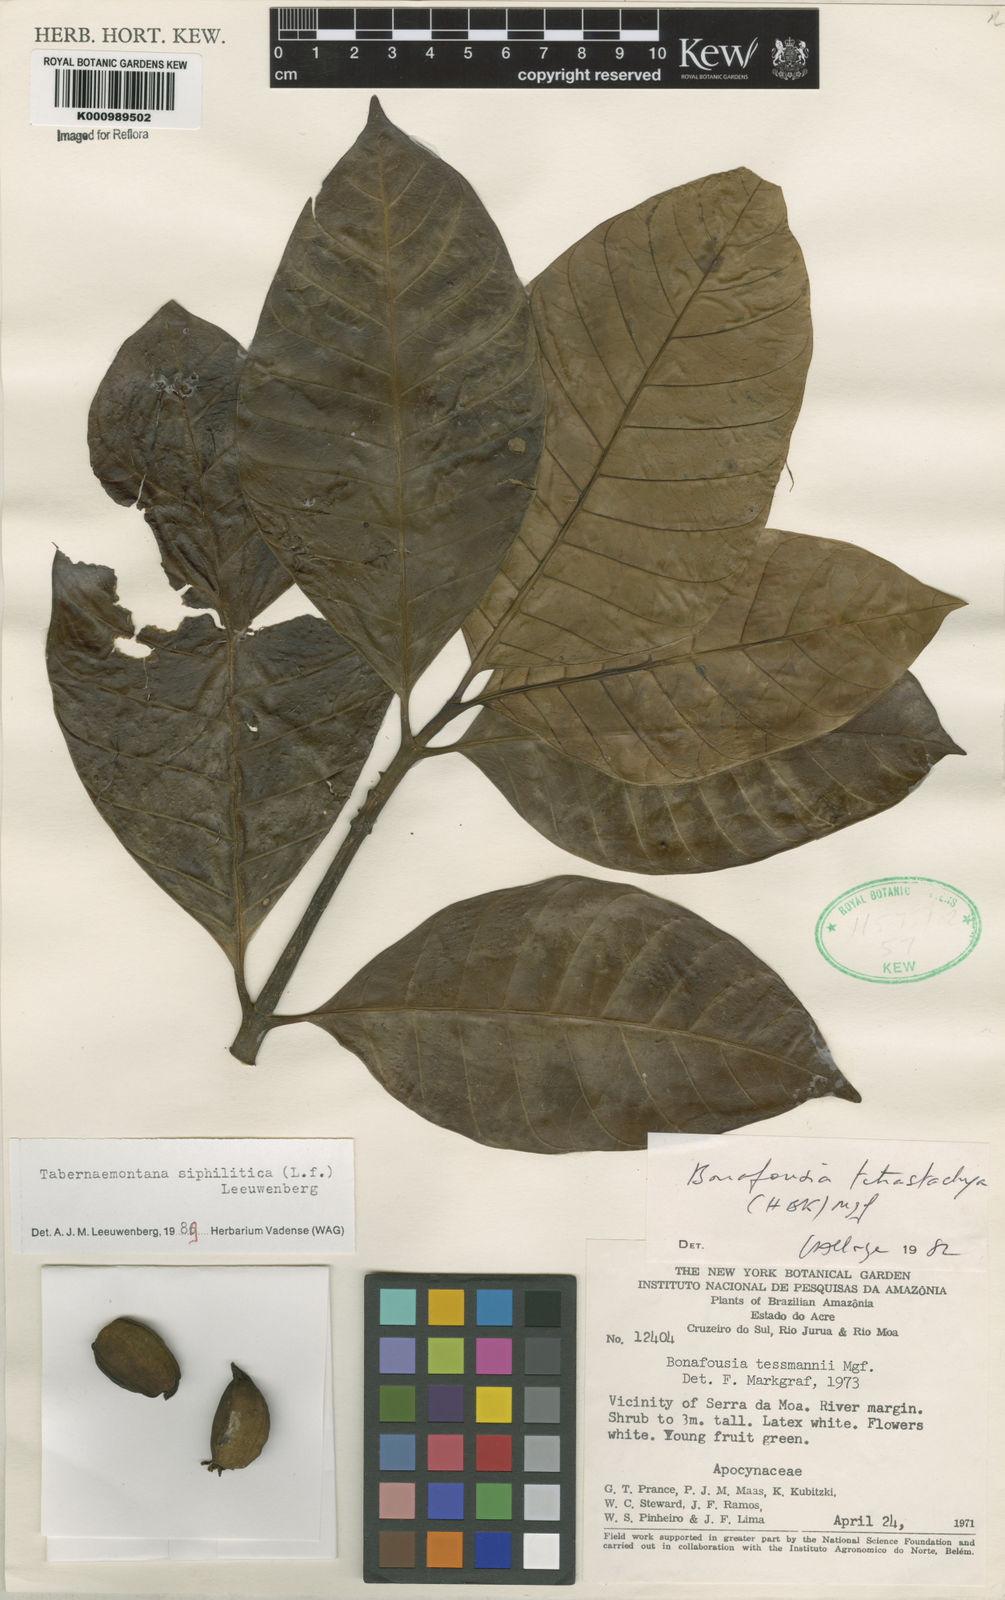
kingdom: Plantae
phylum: Tracheophyta
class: Magnoliopsida
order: Gentianales
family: Apocynaceae
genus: Tabernaemontana
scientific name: Tabernaemontana siphilitica
